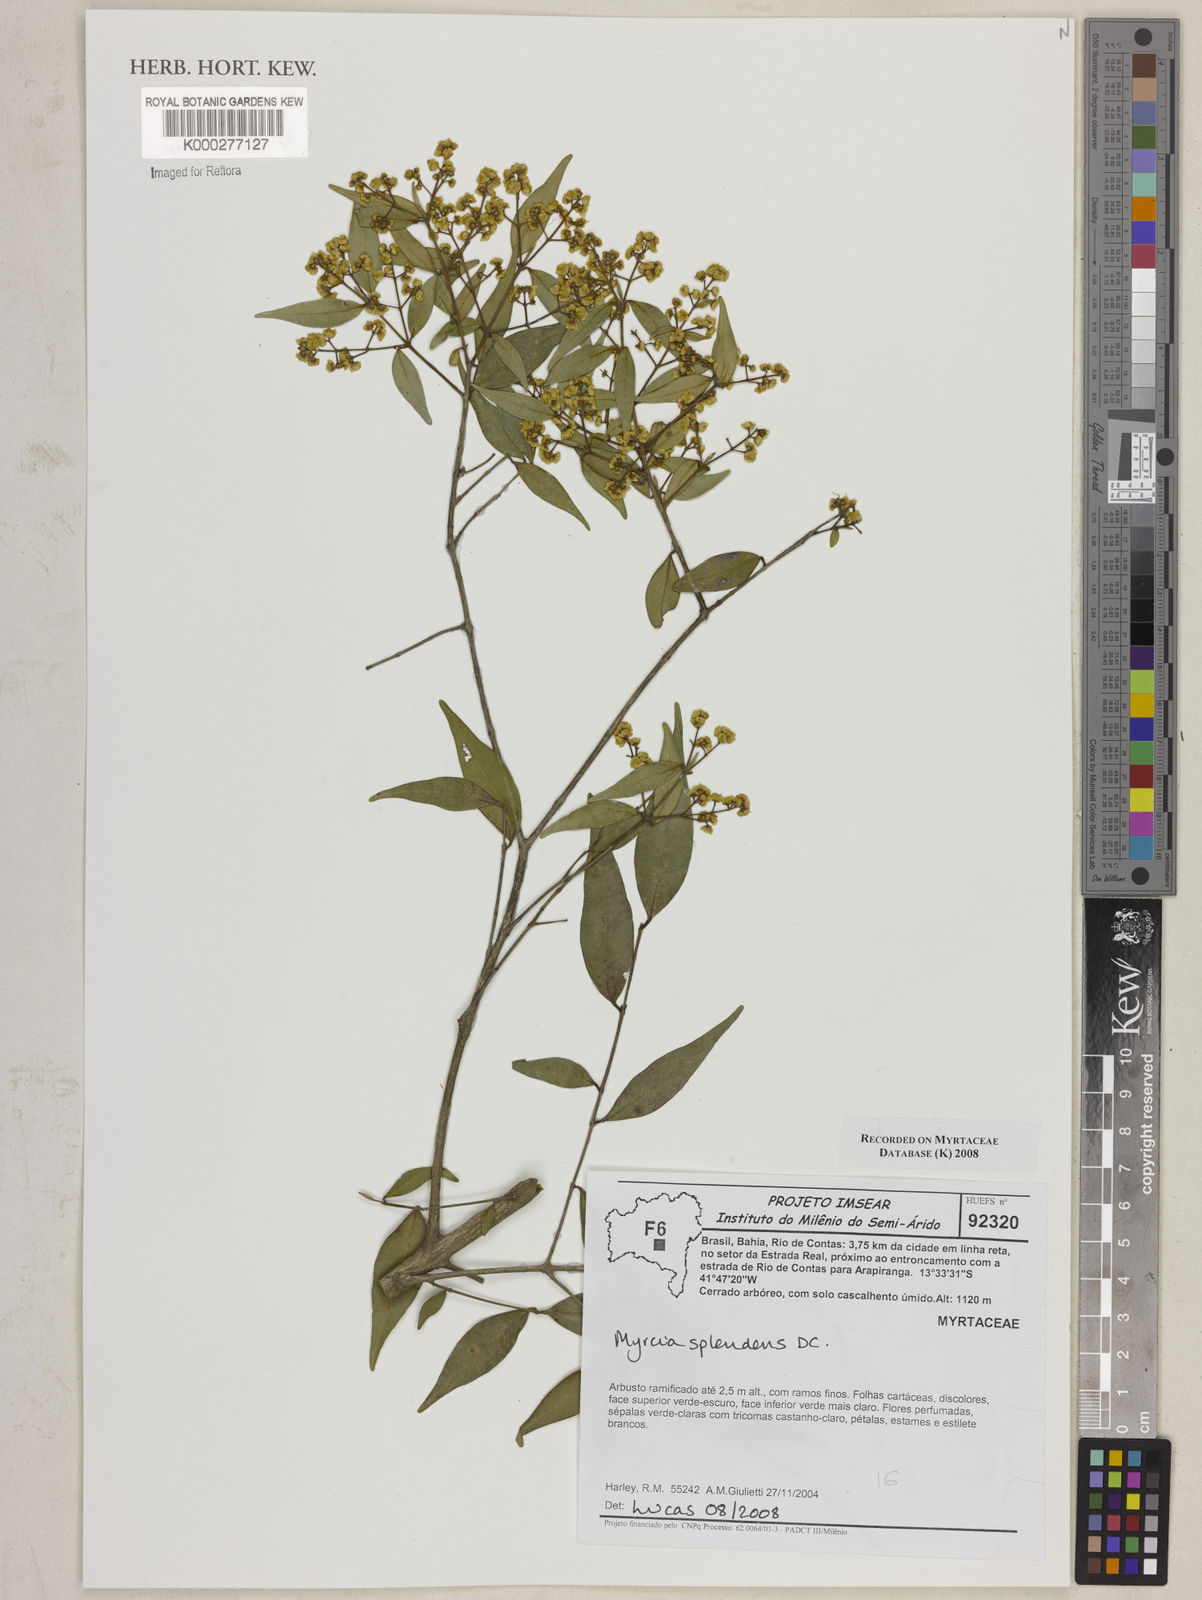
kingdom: Plantae
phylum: Tracheophyta
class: Magnoliopsida
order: Myrtales
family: Myrtaceae
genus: Myrcia
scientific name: Myrcia splendens
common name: Surinam cherry
